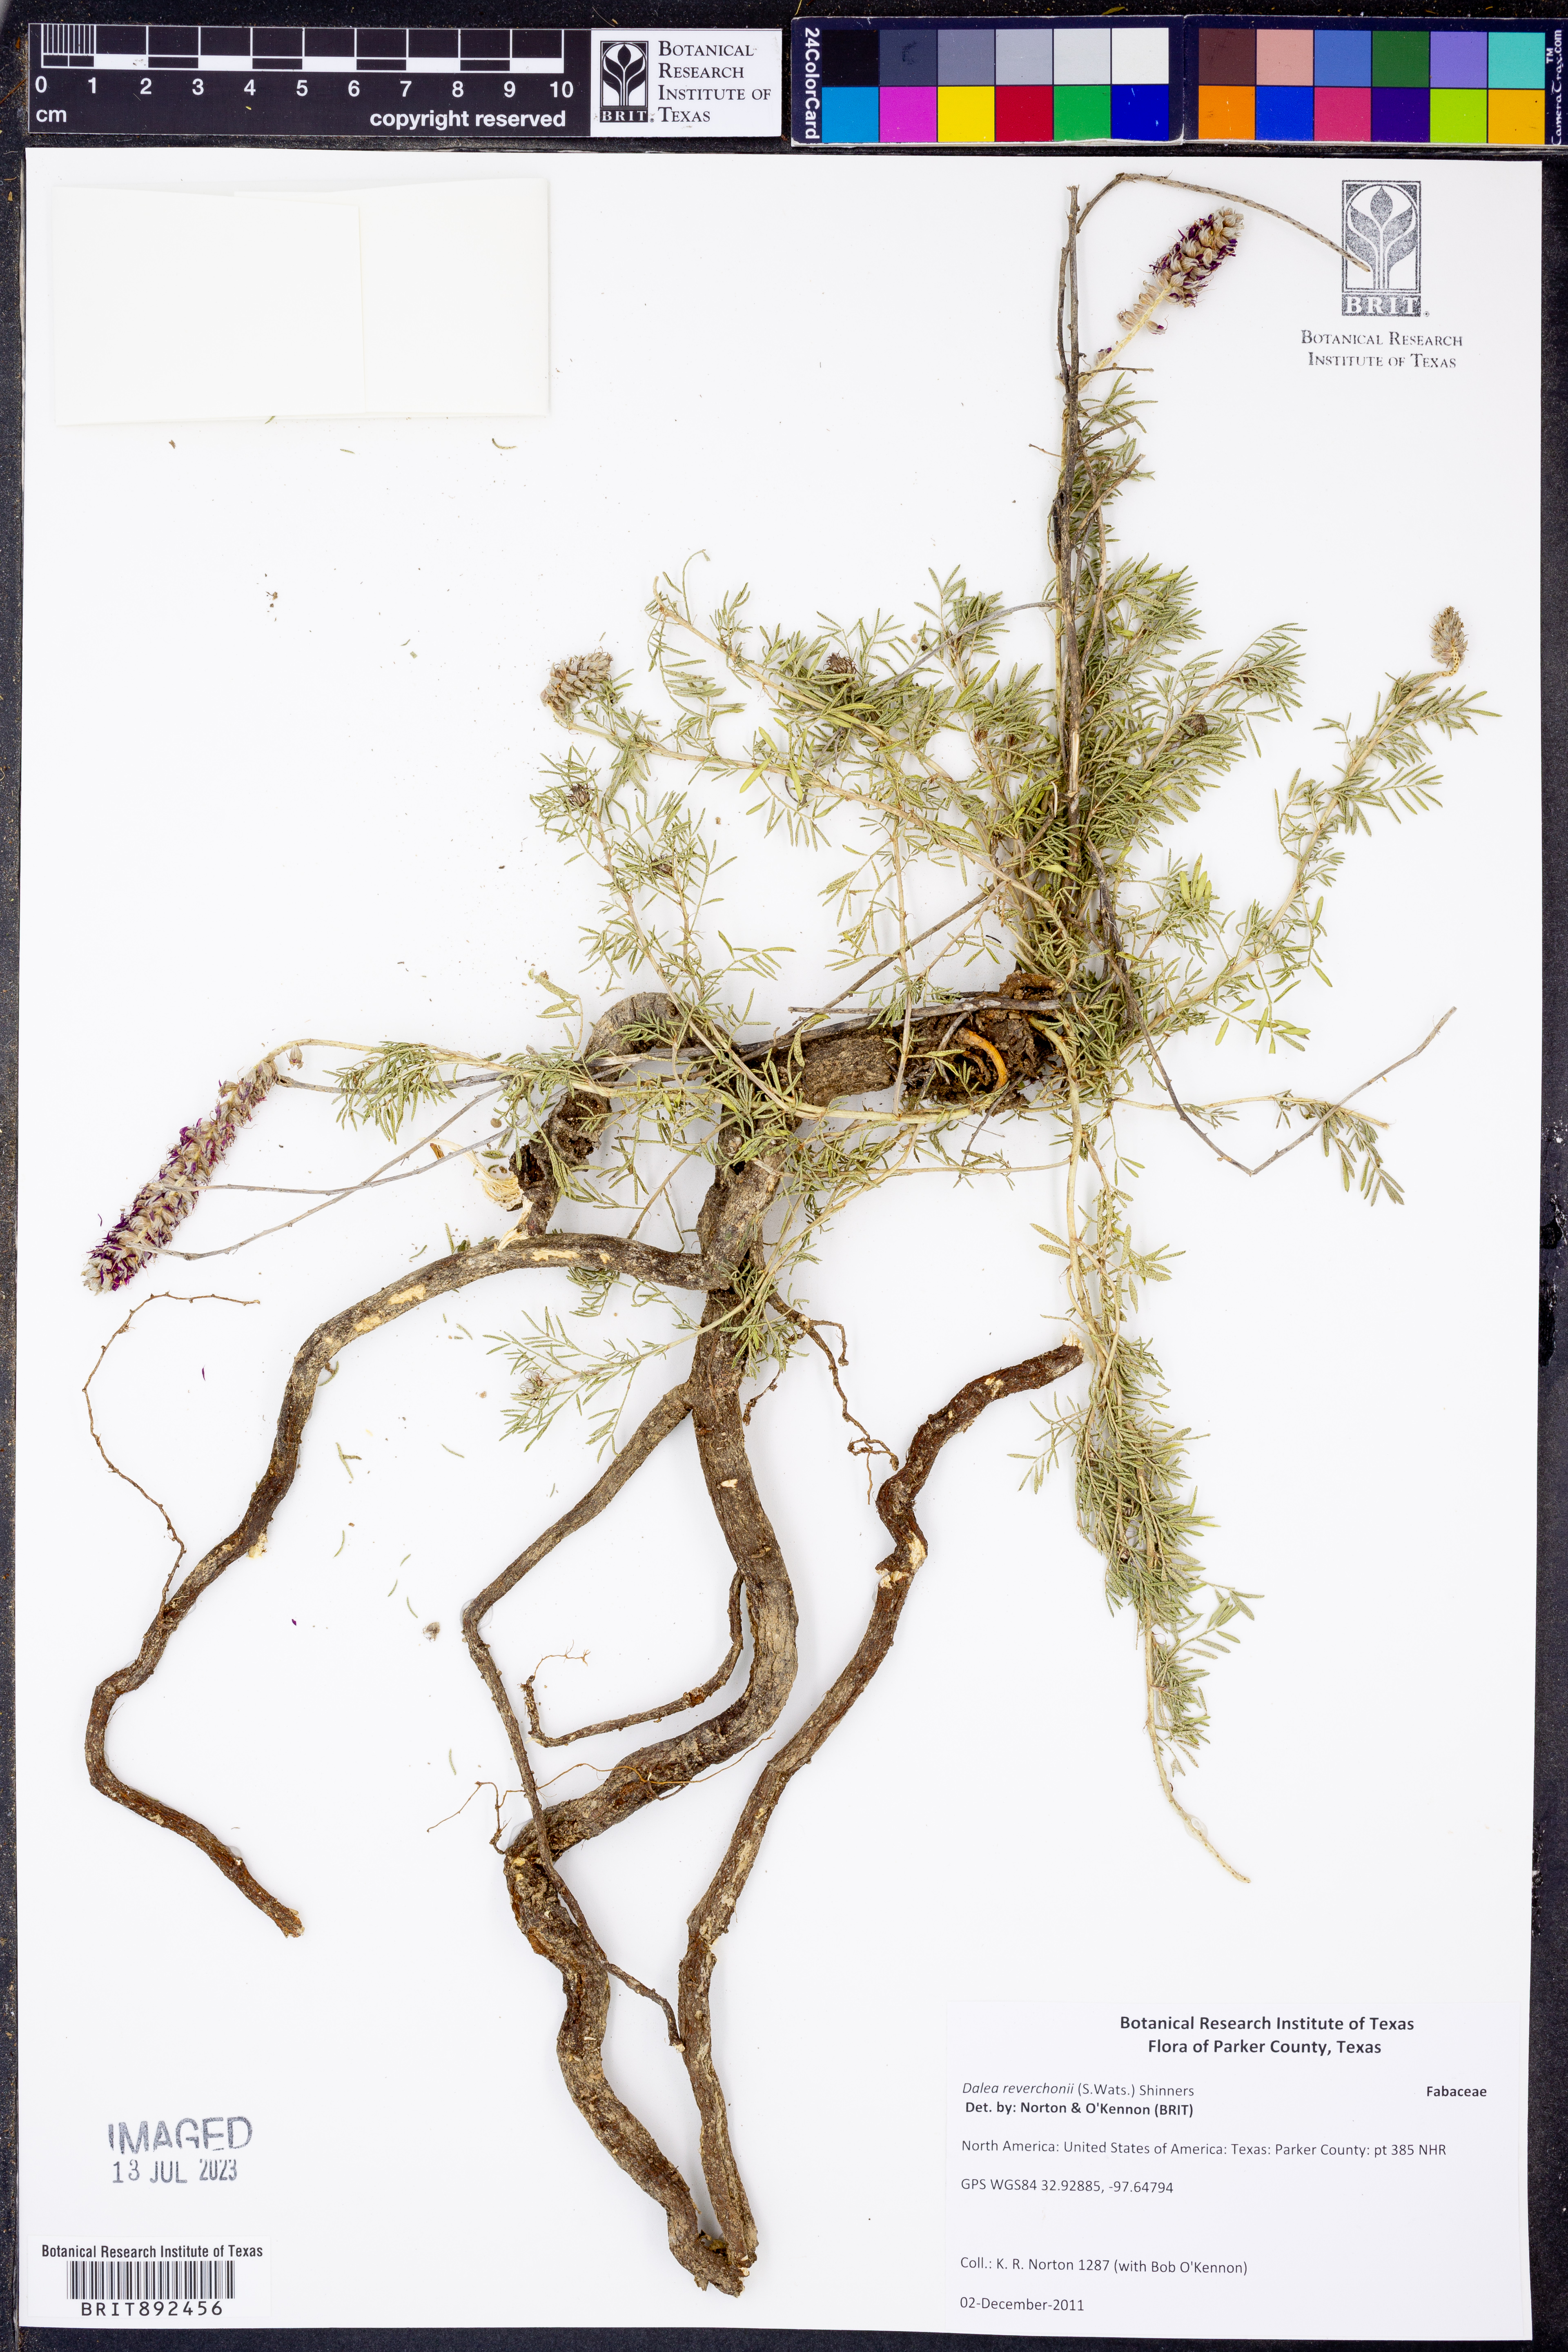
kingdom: Plantae
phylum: Tracheophyta
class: Magnoliopsida
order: Fabales
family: Fabaceae
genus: Dalea
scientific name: Dalea reverchonii
